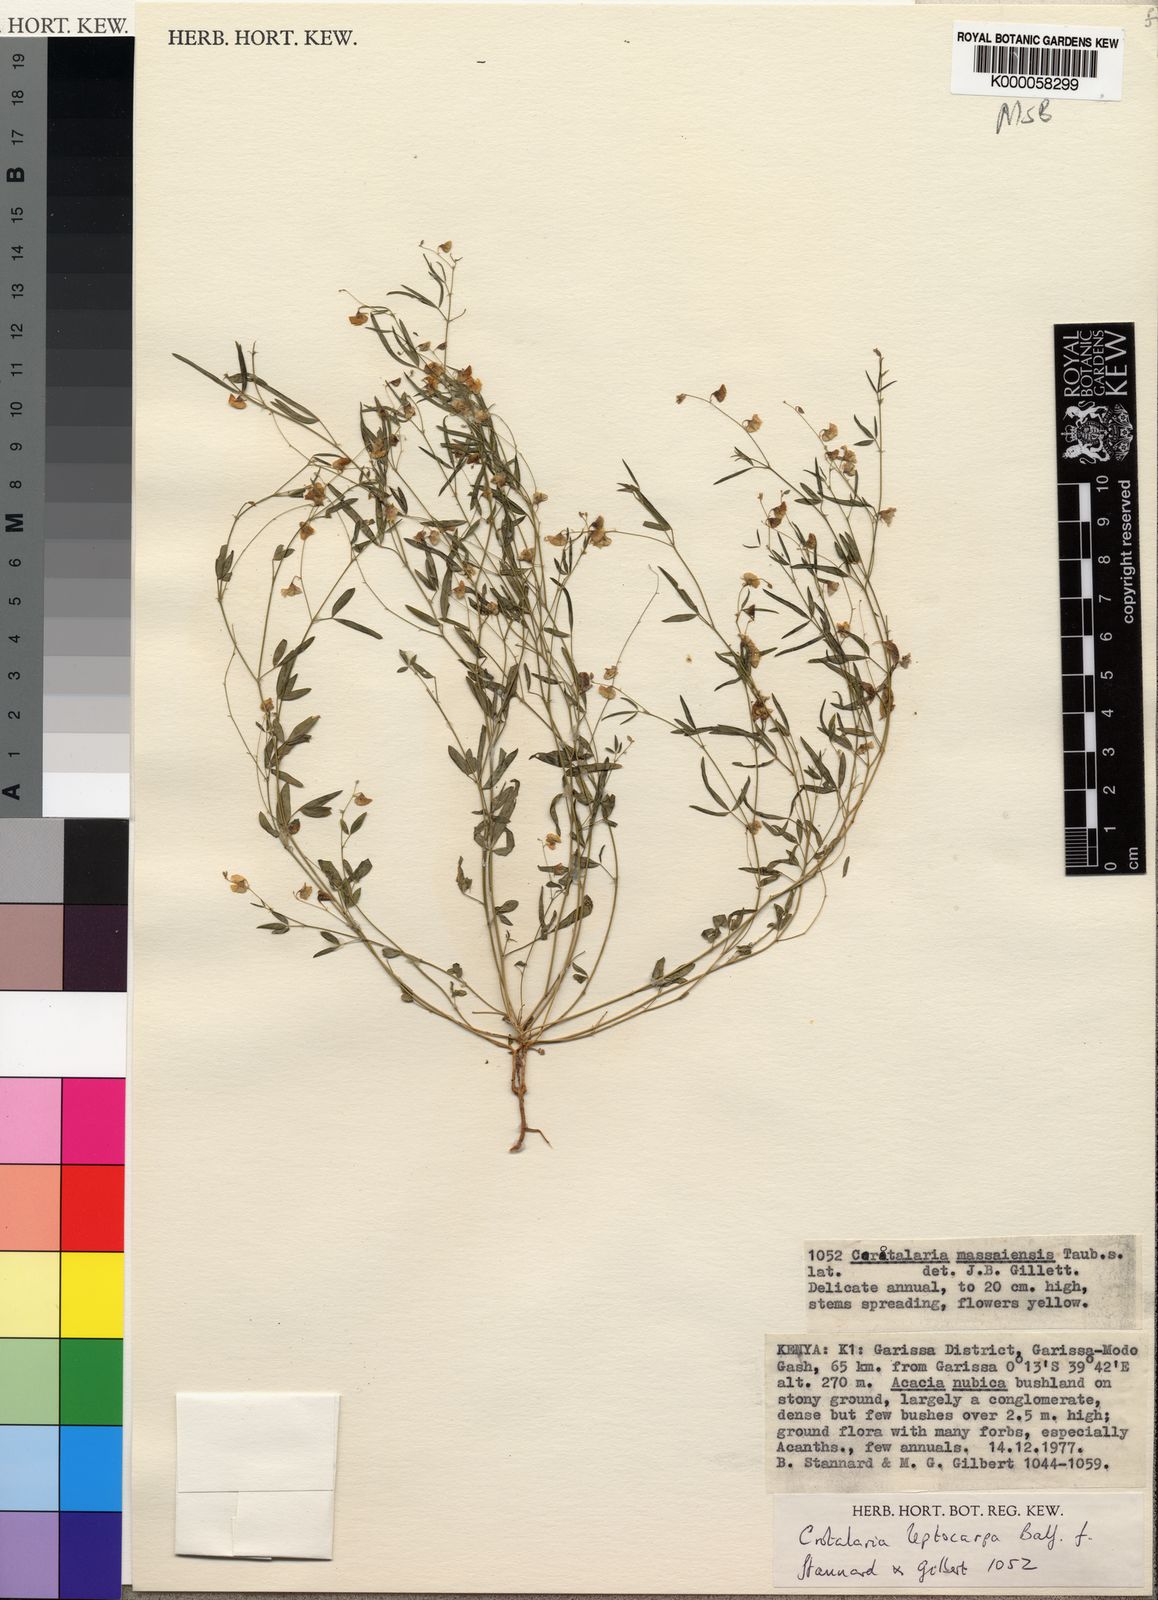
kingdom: Plantae
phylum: Tracheophyta
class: Magnoliopsida
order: Fabales
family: Fabaceae
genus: Crotalaria
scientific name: Crotalaria leptocarpa
